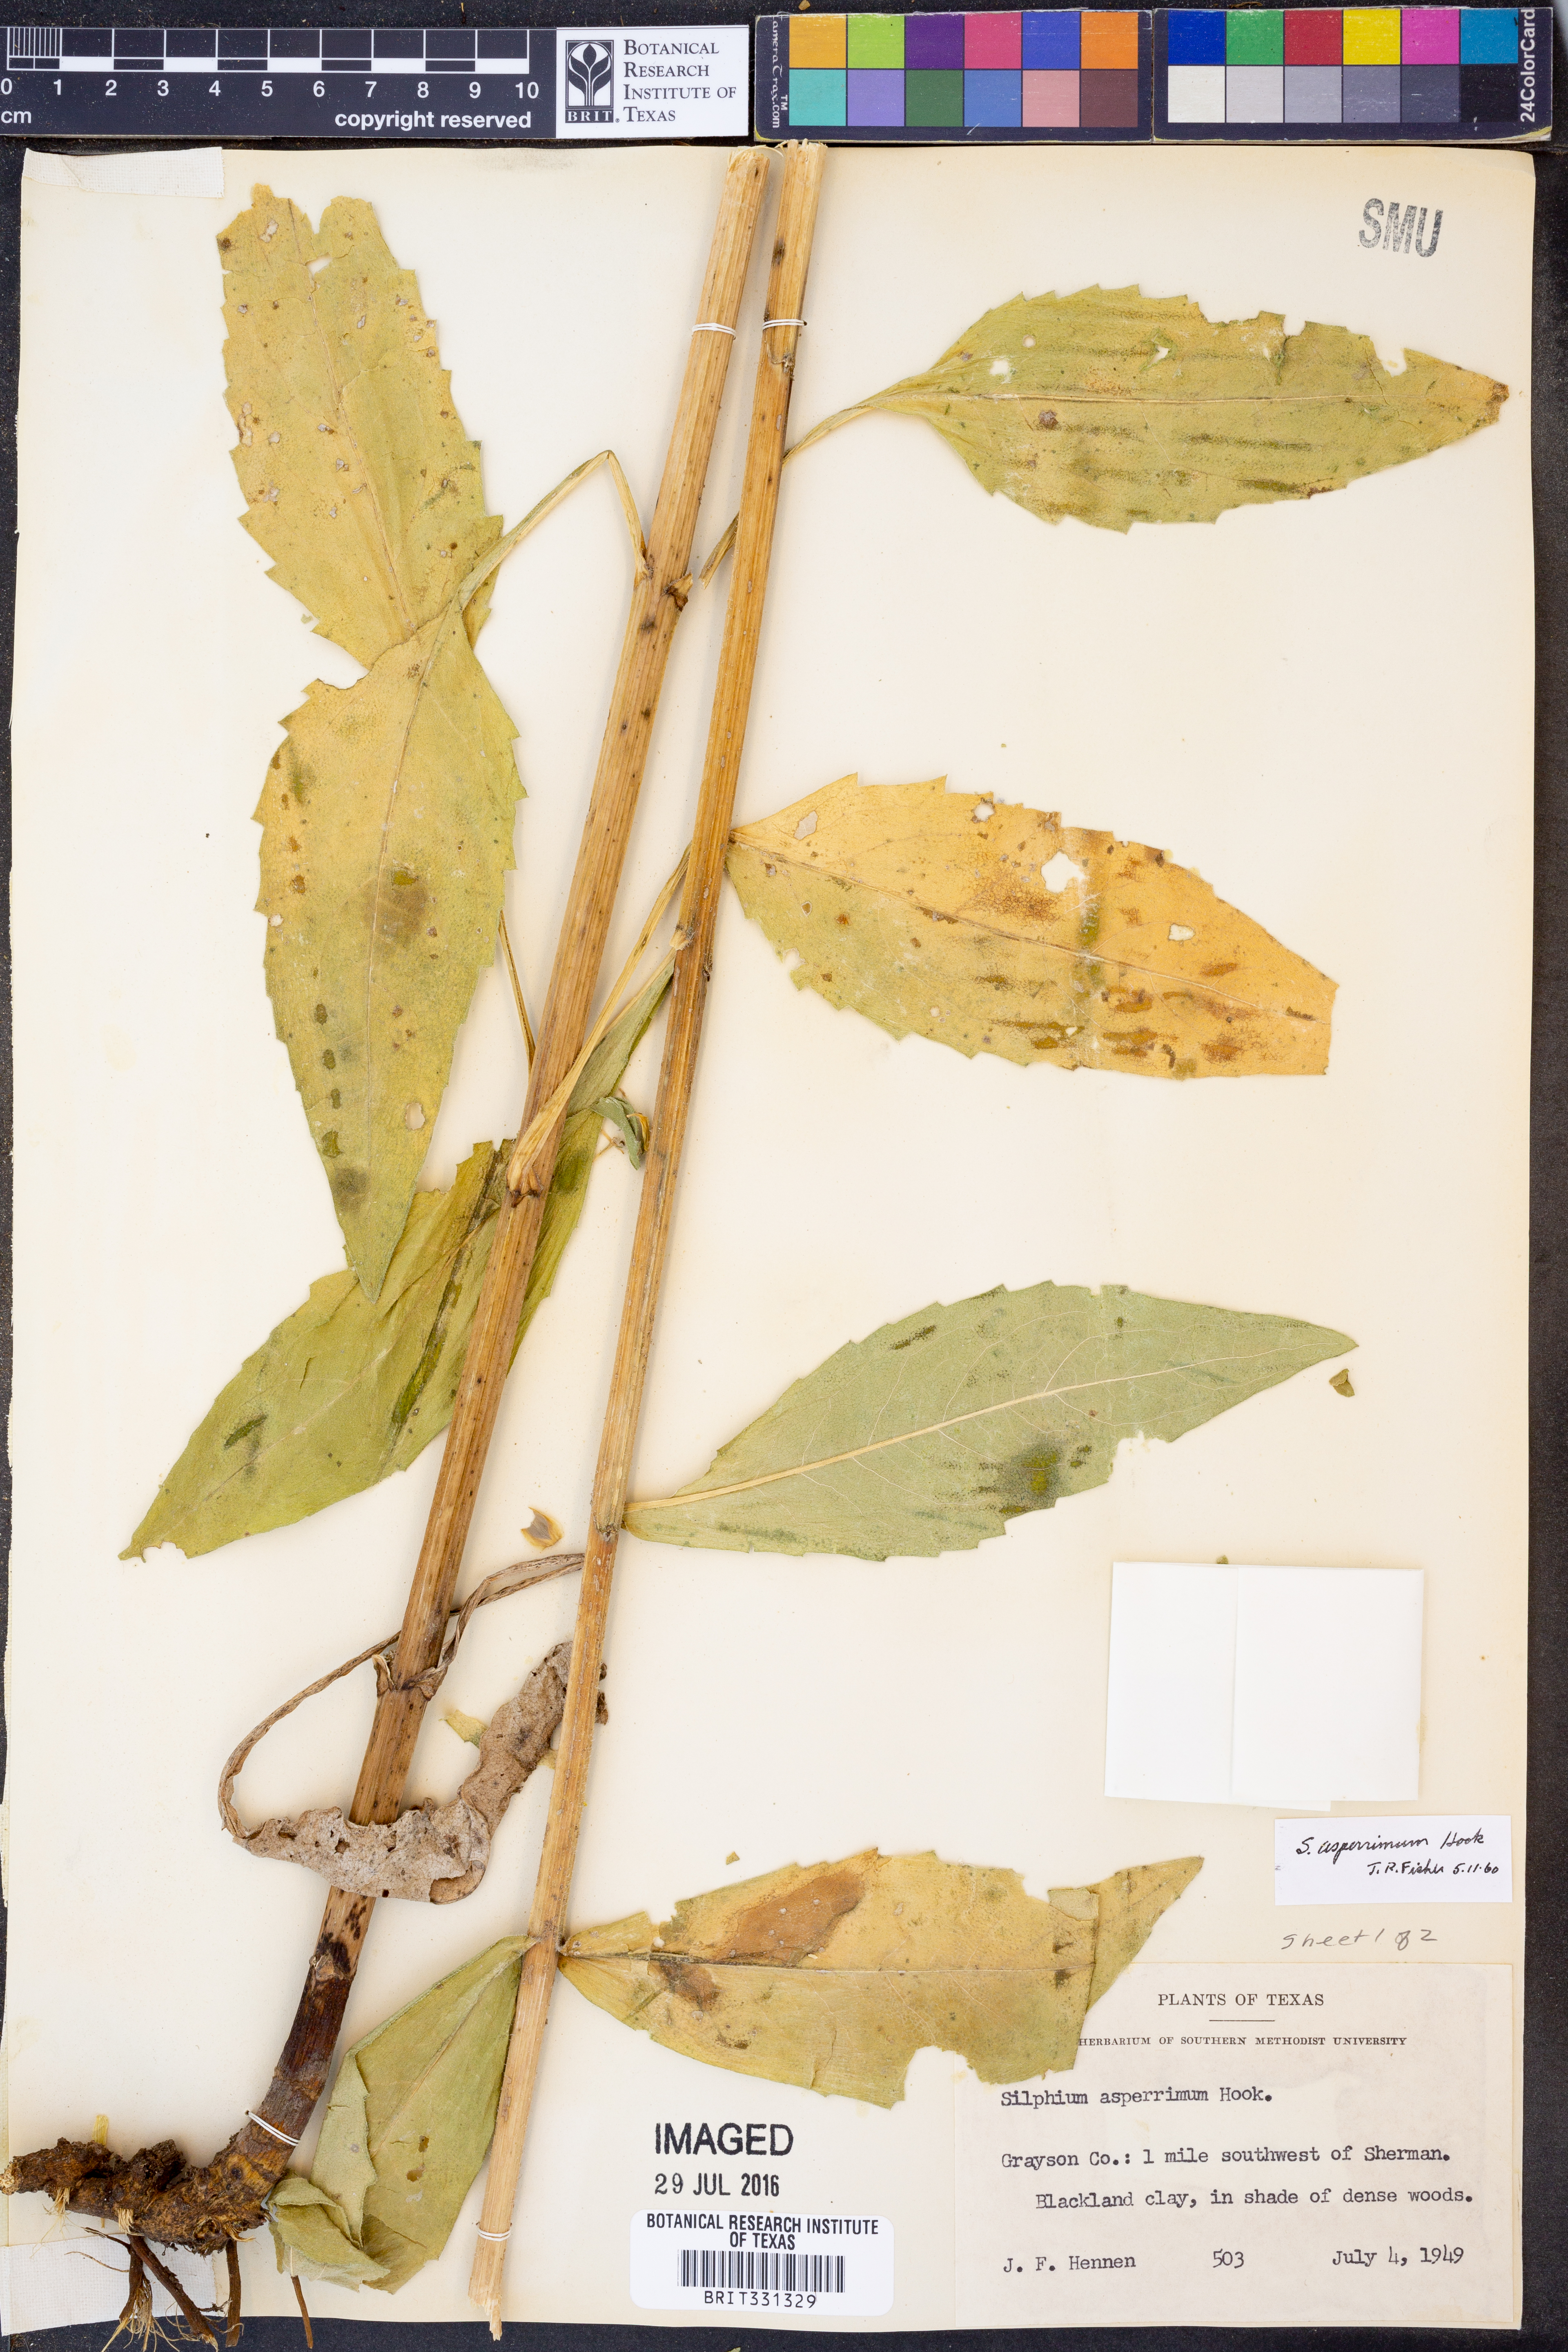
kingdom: Plantae
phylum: Tracheophyta
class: Magnoliopsida
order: Asterales
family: Asteraceae
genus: Silphium
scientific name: Silphium asperrimum
